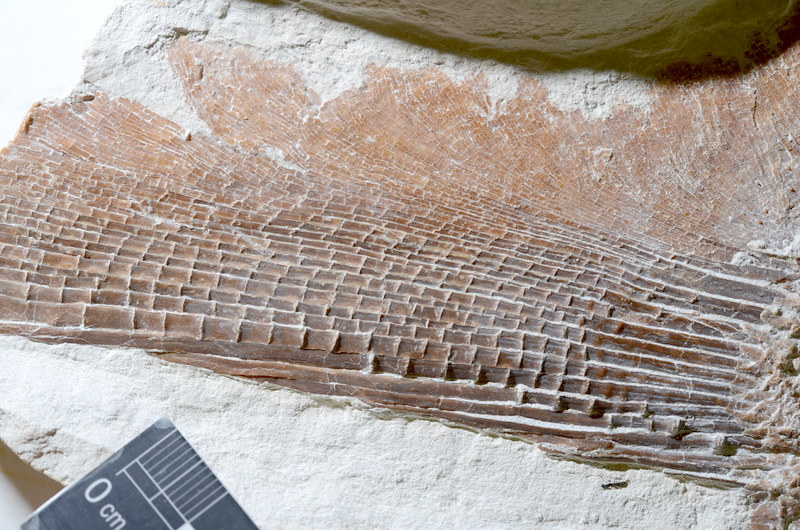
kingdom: Animalia
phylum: Chordata
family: Gyrodontidae
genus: Gyrodus
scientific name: Gyrodus
